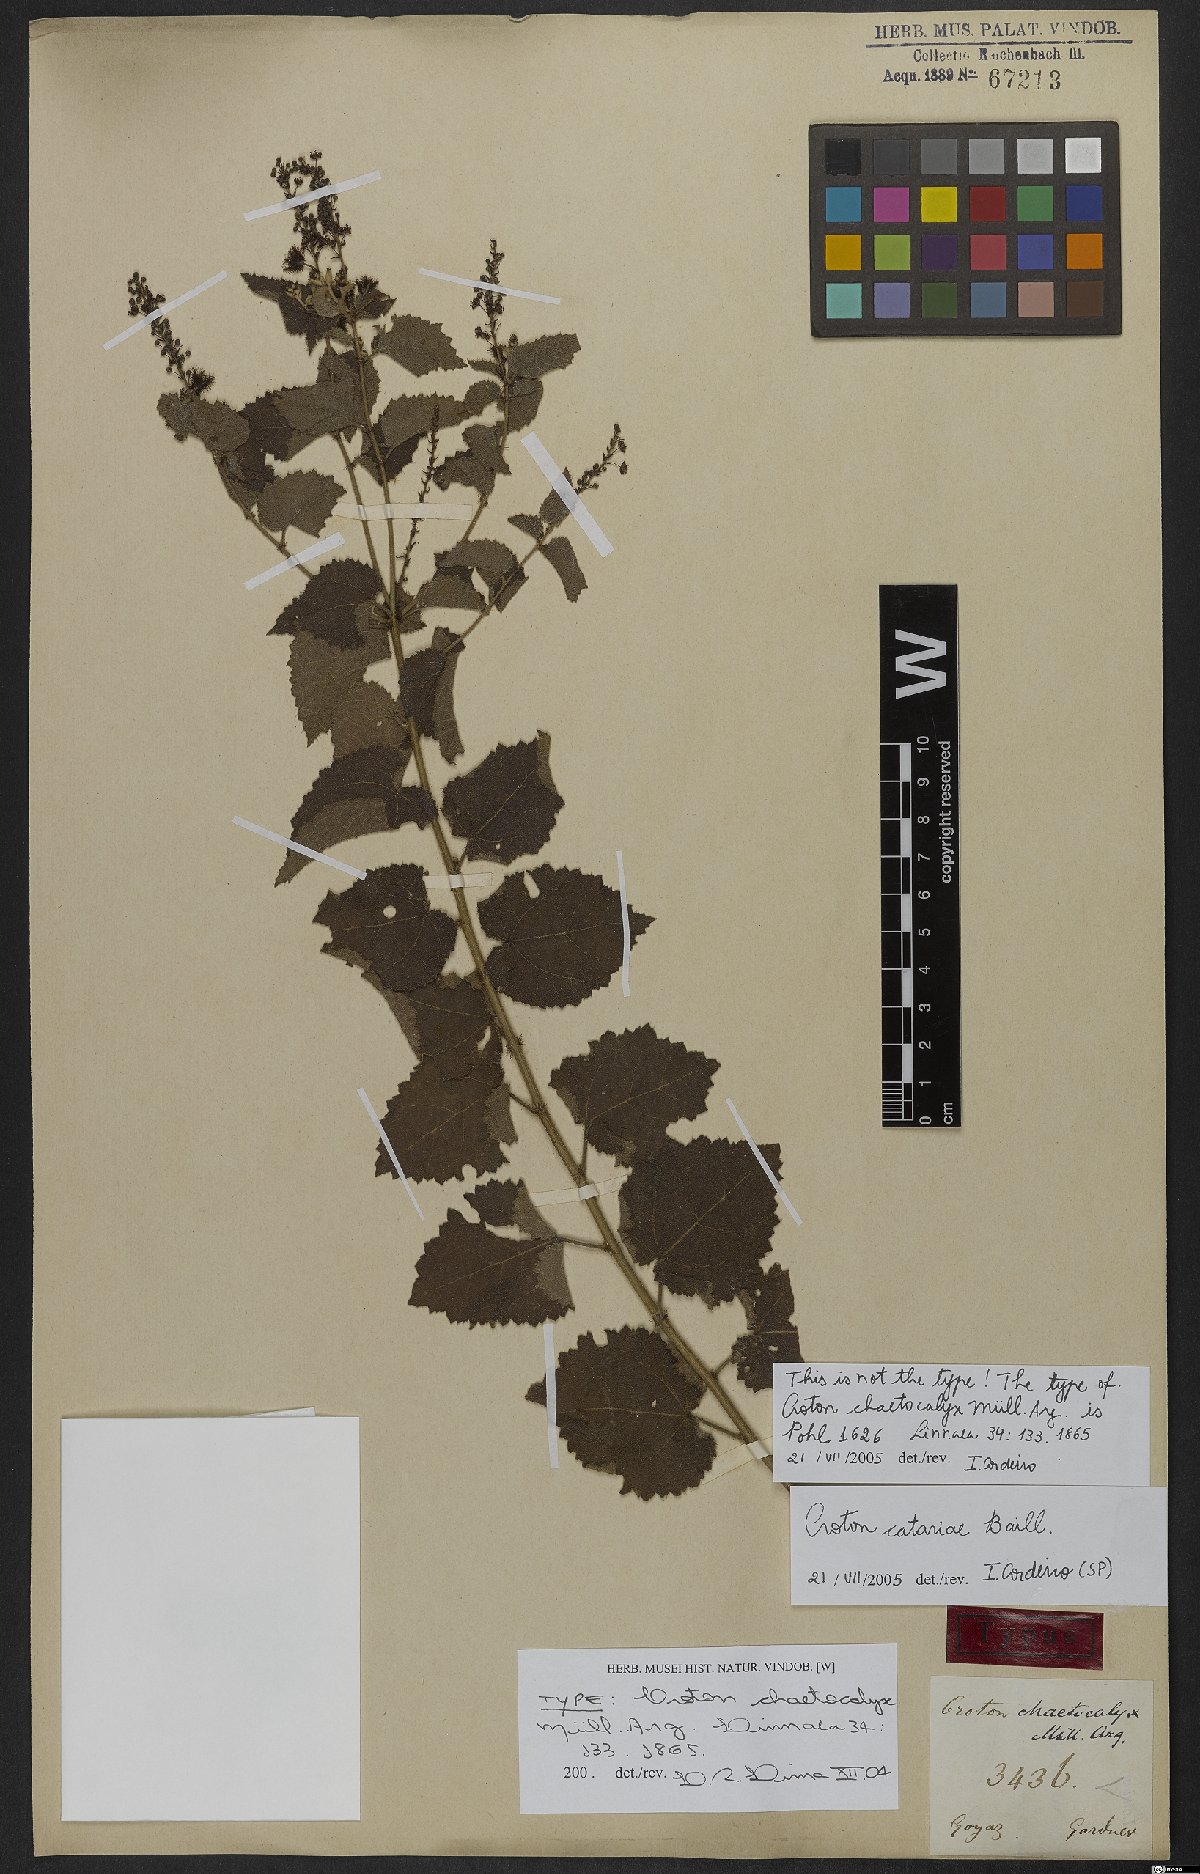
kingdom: Plantae
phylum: Tracheophyta
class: Magnoliopsida
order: Malpighiales
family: Euphorbiaceae
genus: Croton
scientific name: Croton catariae
